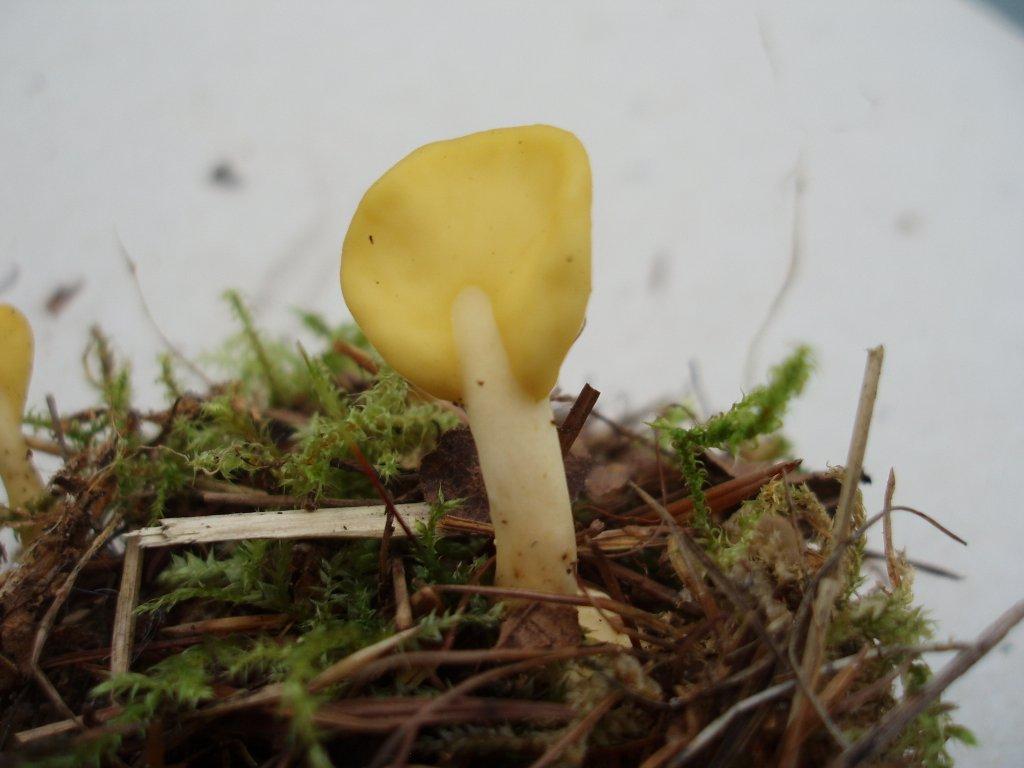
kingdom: Fungi
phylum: Ascomycota
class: Leotiomycetes
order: Rhytismatales
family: Cudoniaceae
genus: Spathularia
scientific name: Spathularia flavida
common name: gul spatelsvamp
